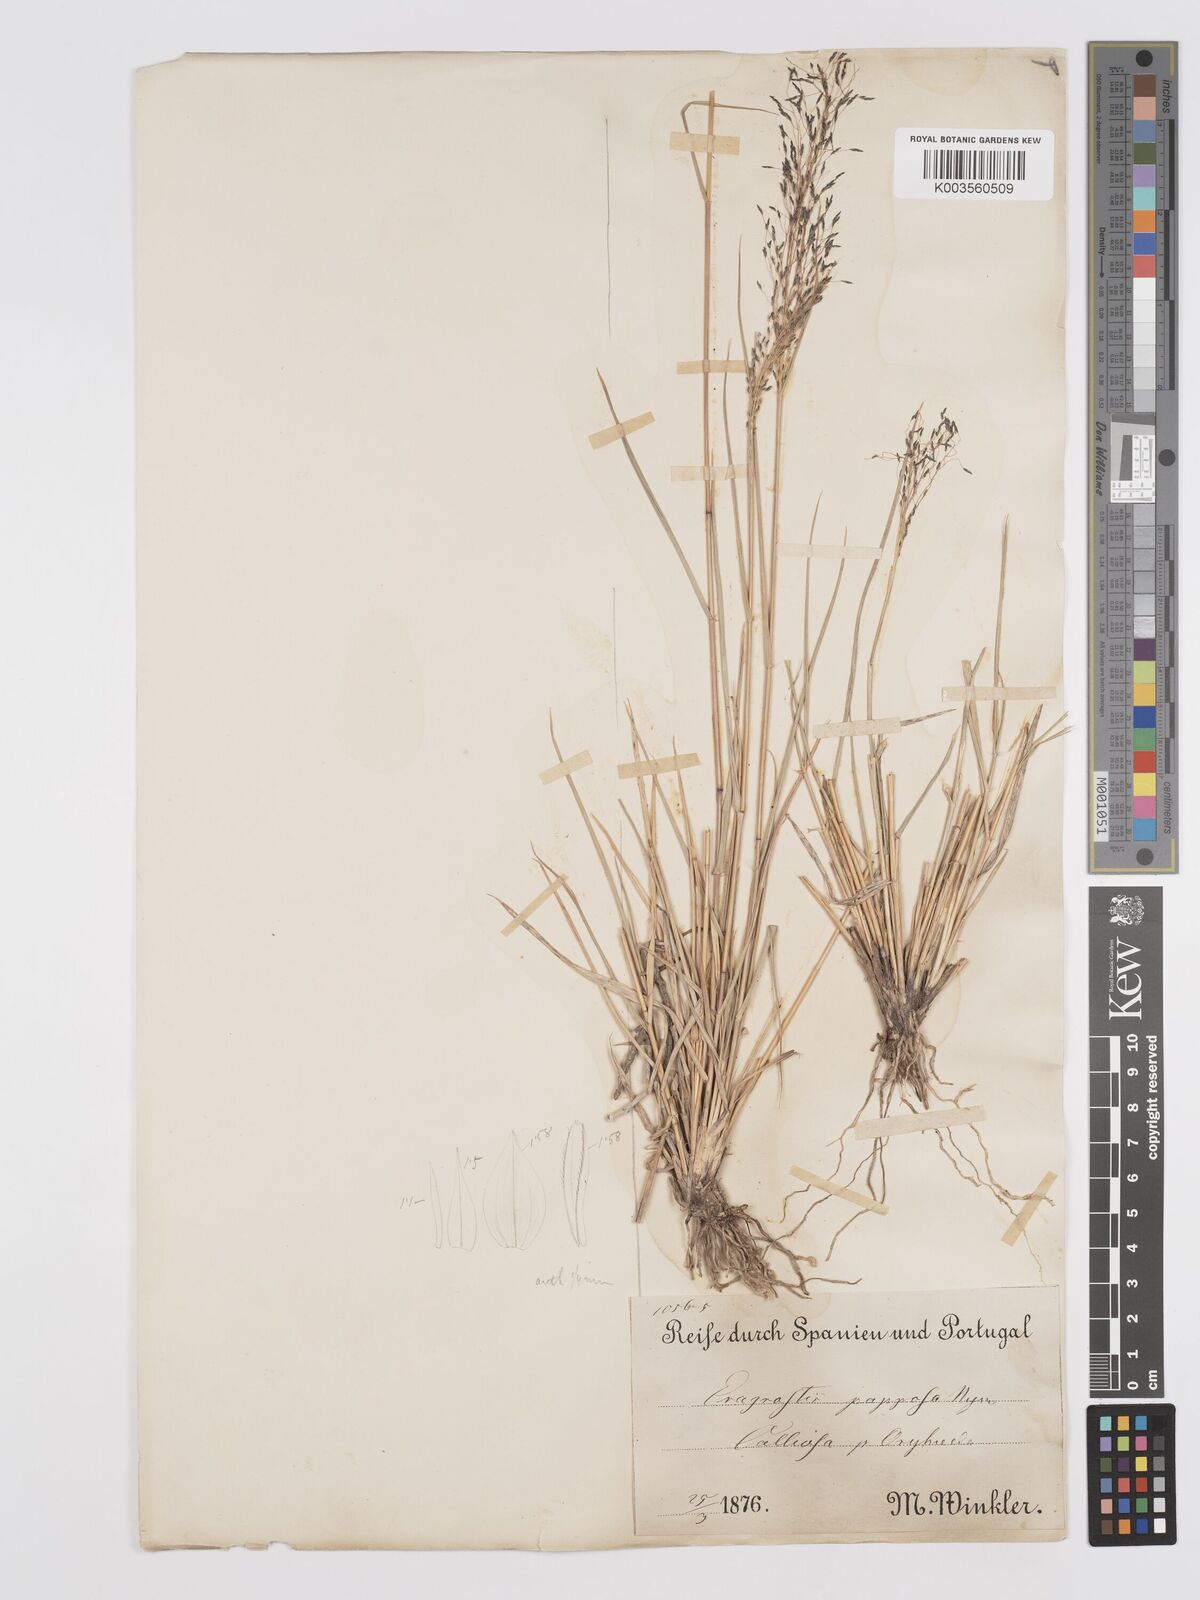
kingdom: Plantae
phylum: Tracheophyta
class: Liliopsida
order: Poales
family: Poaceae
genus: Eragrostis
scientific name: Eragrostis papposa
